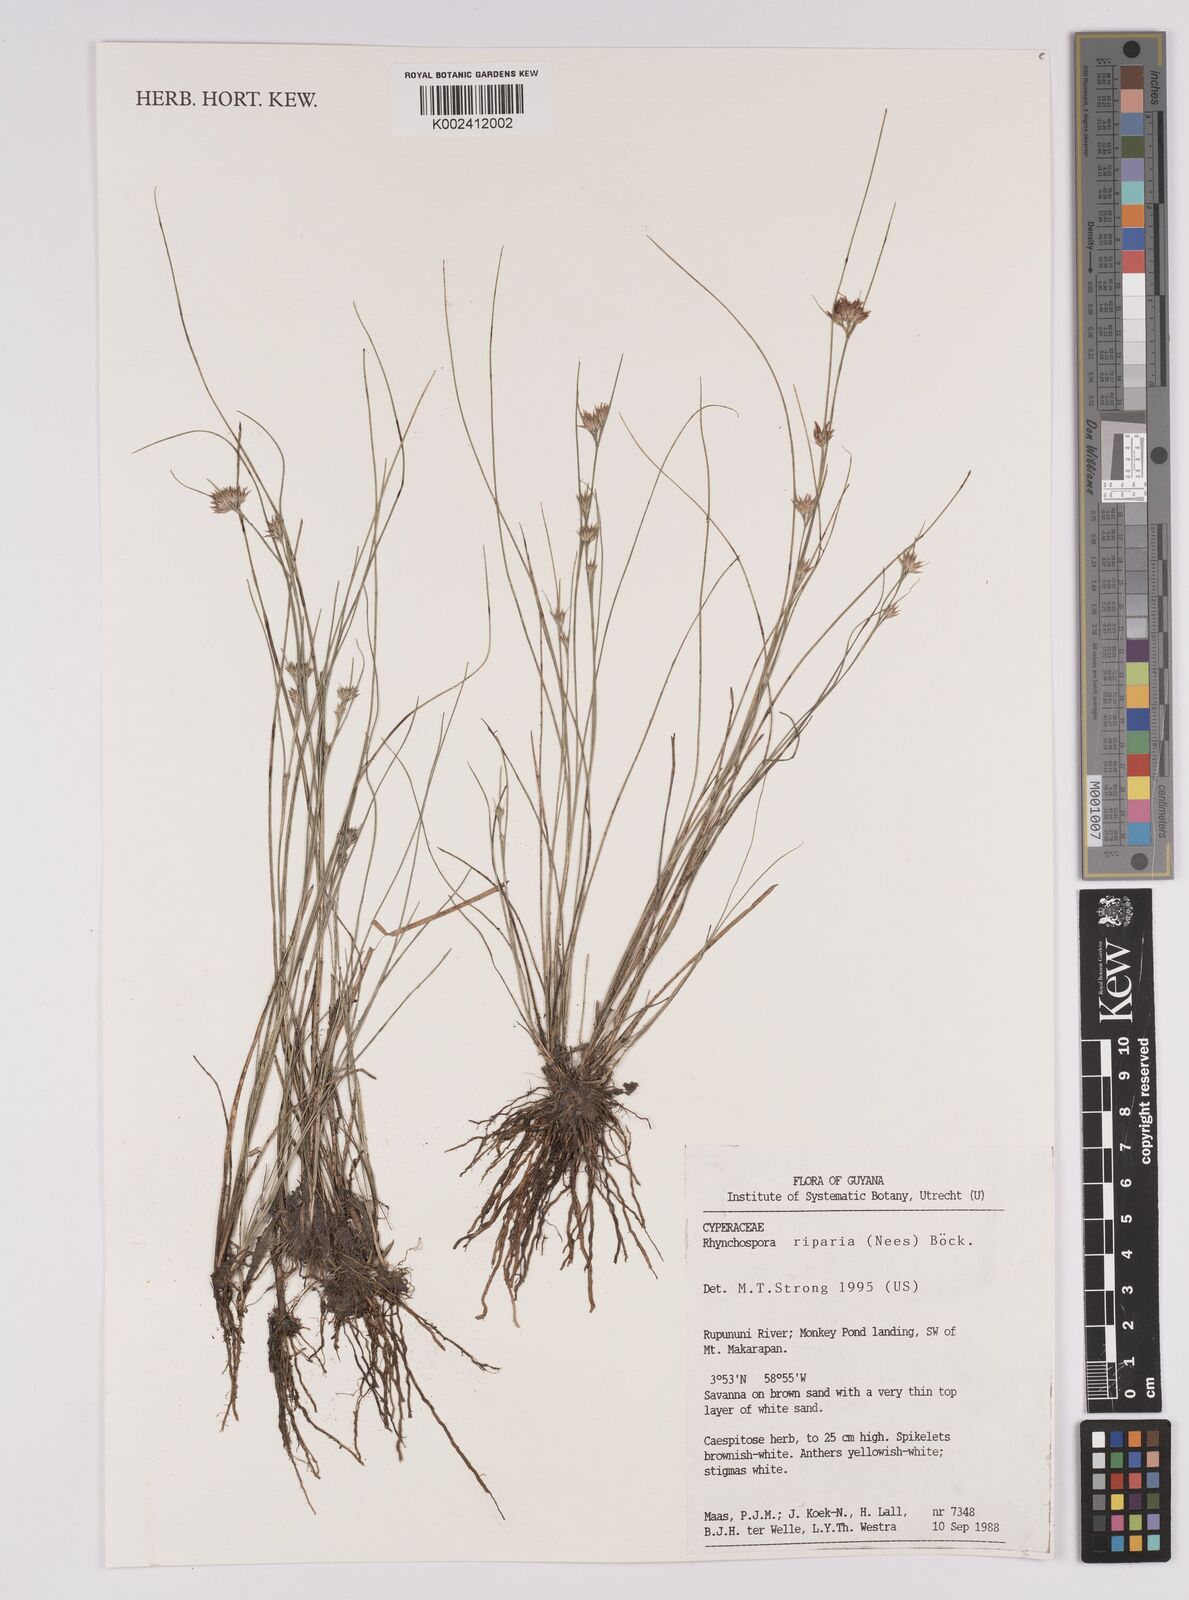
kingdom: Plantae
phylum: Tracheophyta
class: Liliopsida
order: Poales
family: Cyperaceae
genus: Rhynchospora
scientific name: Rhynchospora riparia
